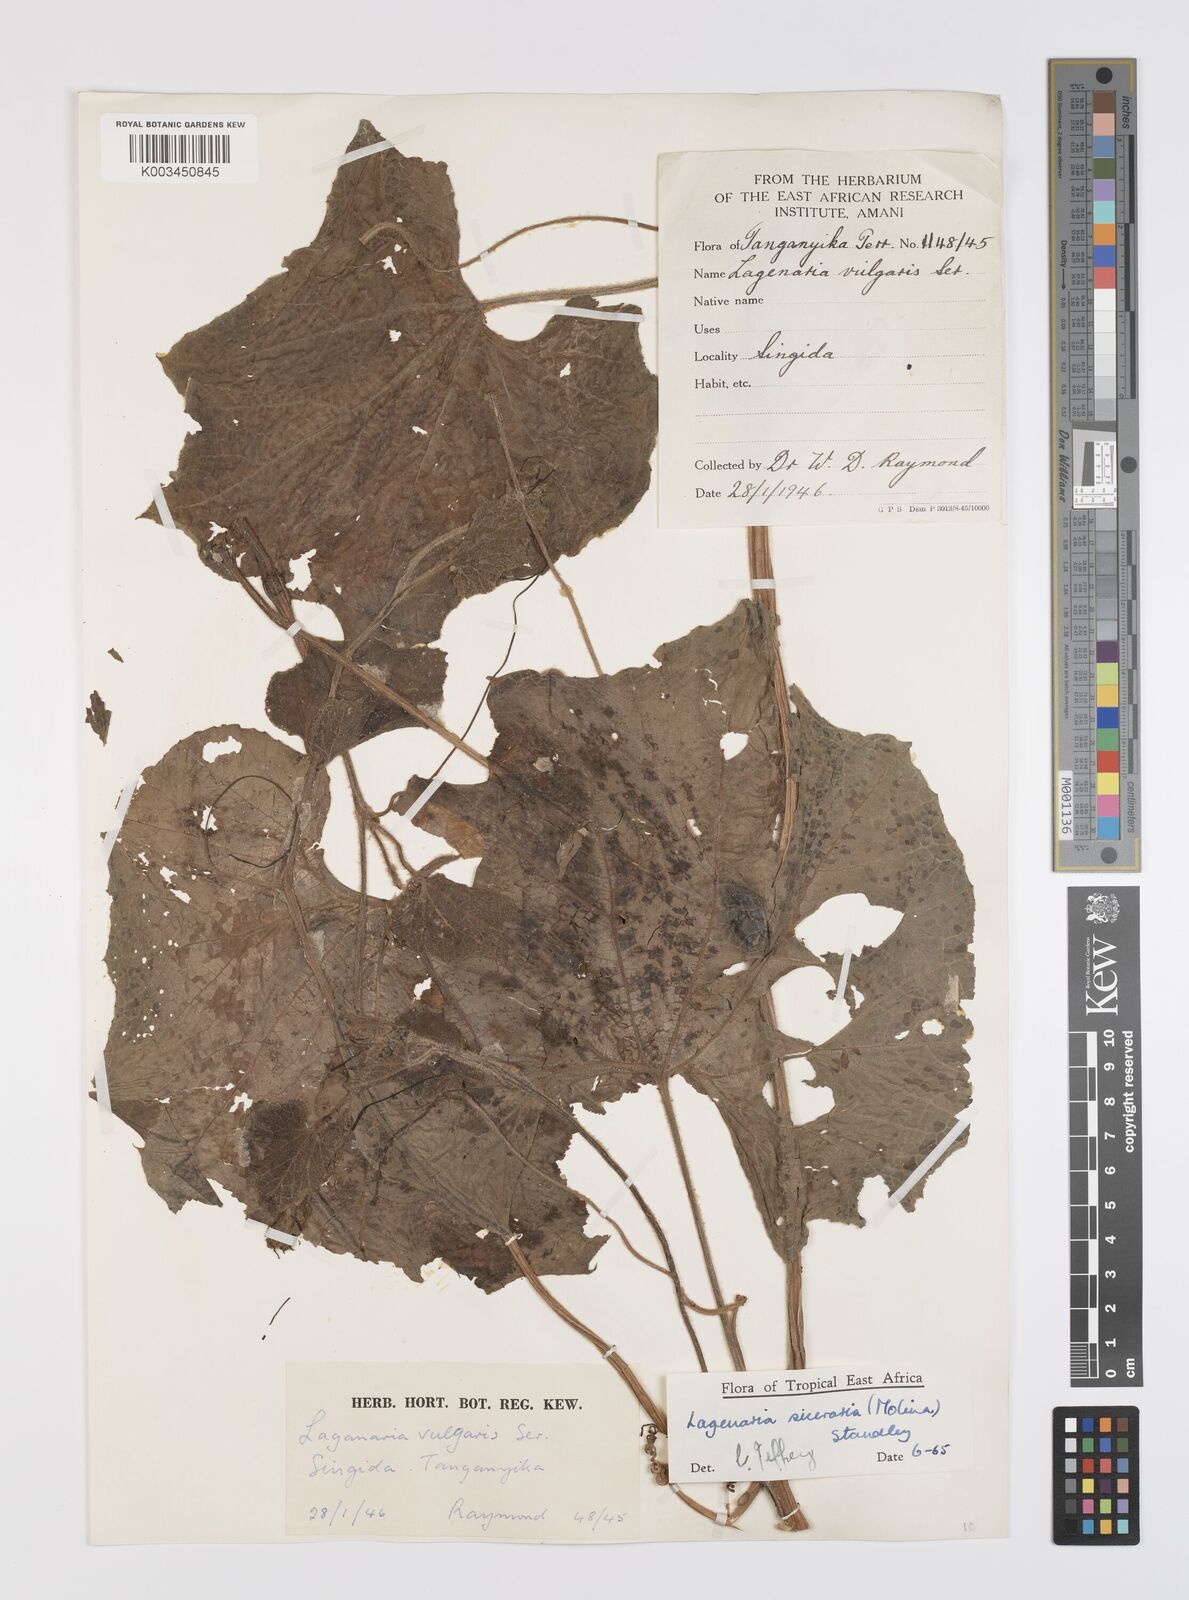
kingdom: Plantae
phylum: Tracheophyta
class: Magnoliopsida
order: Cucurbitales
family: Cucurbitaceae
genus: Lagenaria
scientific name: Lagenaria siceraria
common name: Bottle gourd
